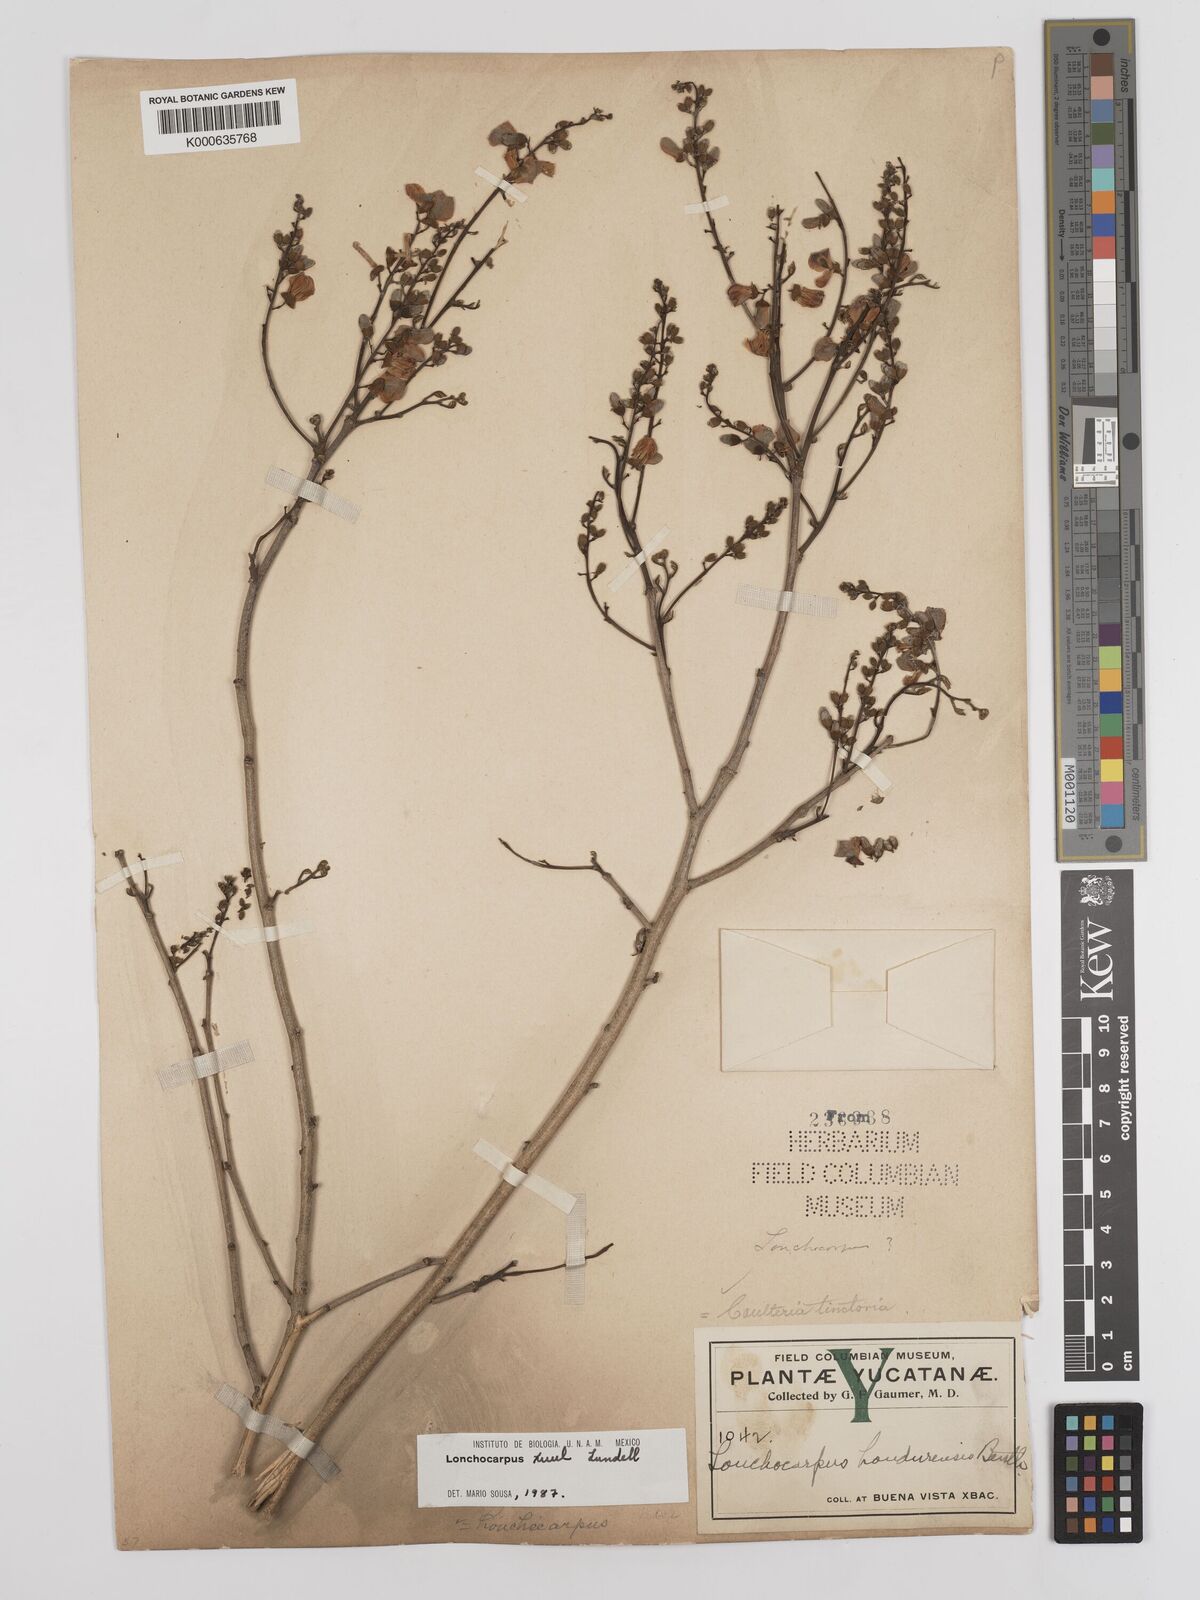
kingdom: Plantae
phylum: Tracheophyta
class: Magnoliopsida
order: Fabales
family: Fabaceae
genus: Lonchocarpus
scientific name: Lonchocarpus guatemalensis
